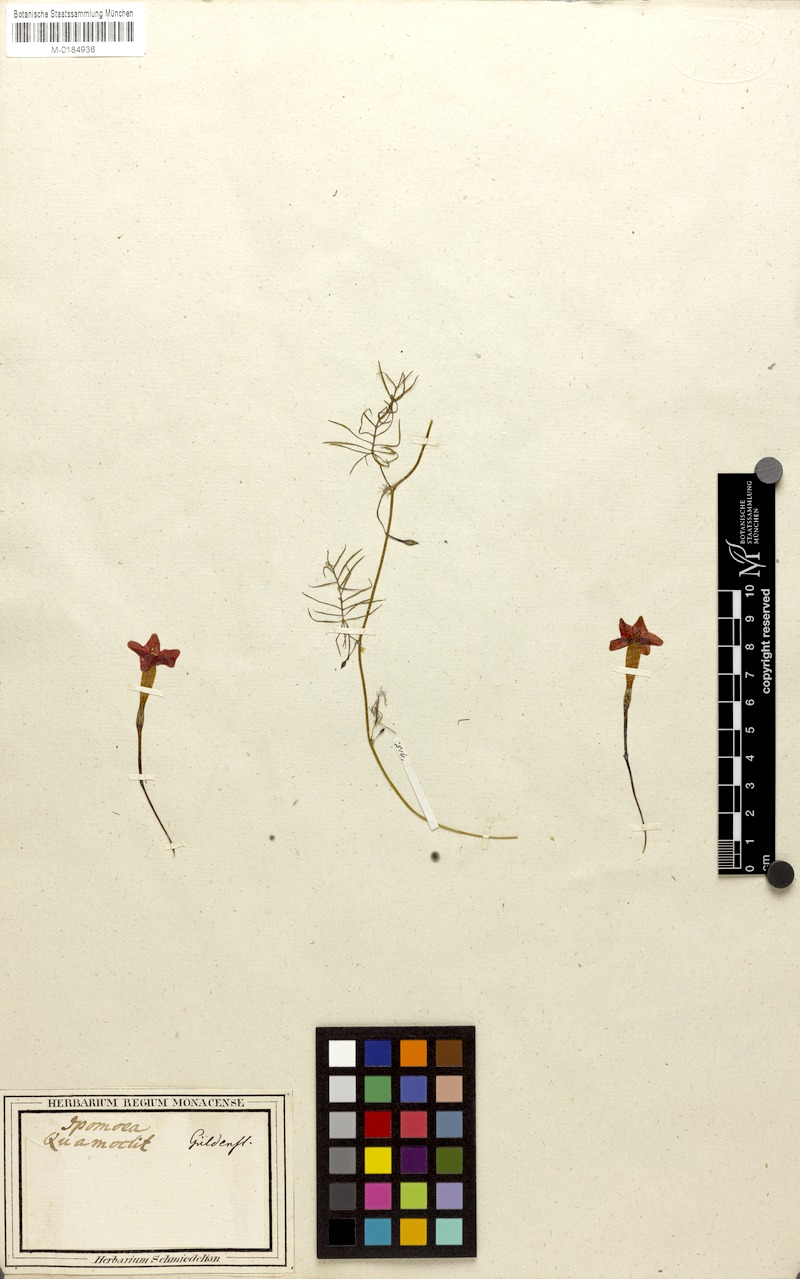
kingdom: Plantae
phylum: Tracheophyta
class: Magnoliopsida
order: Solanales
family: Convolvulaceae
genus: Ipomoea
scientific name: Ipomoea quamoclit
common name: Cypress vine
